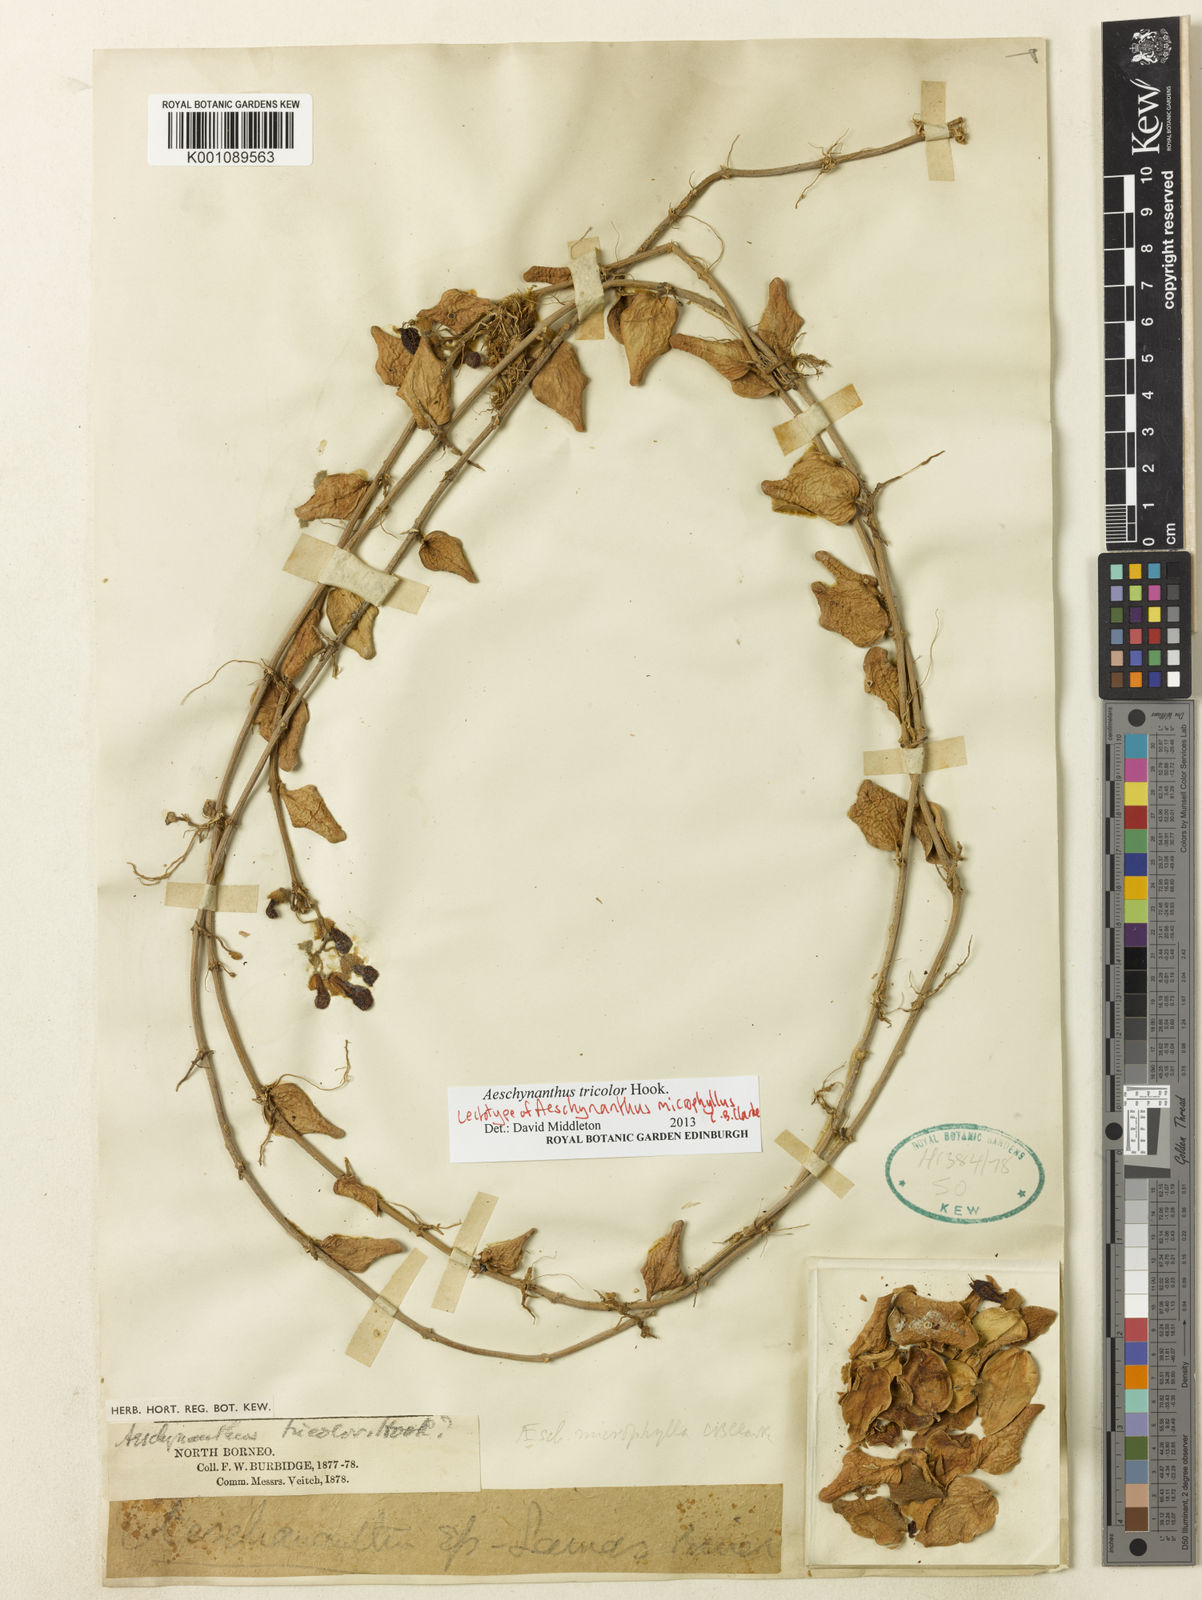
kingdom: Plantae
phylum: Tracheophyta
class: Magnoliopsida
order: Lamiales
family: Gesneriaceae
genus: Aeschynanthus
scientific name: Aeschynanthus tricolor
